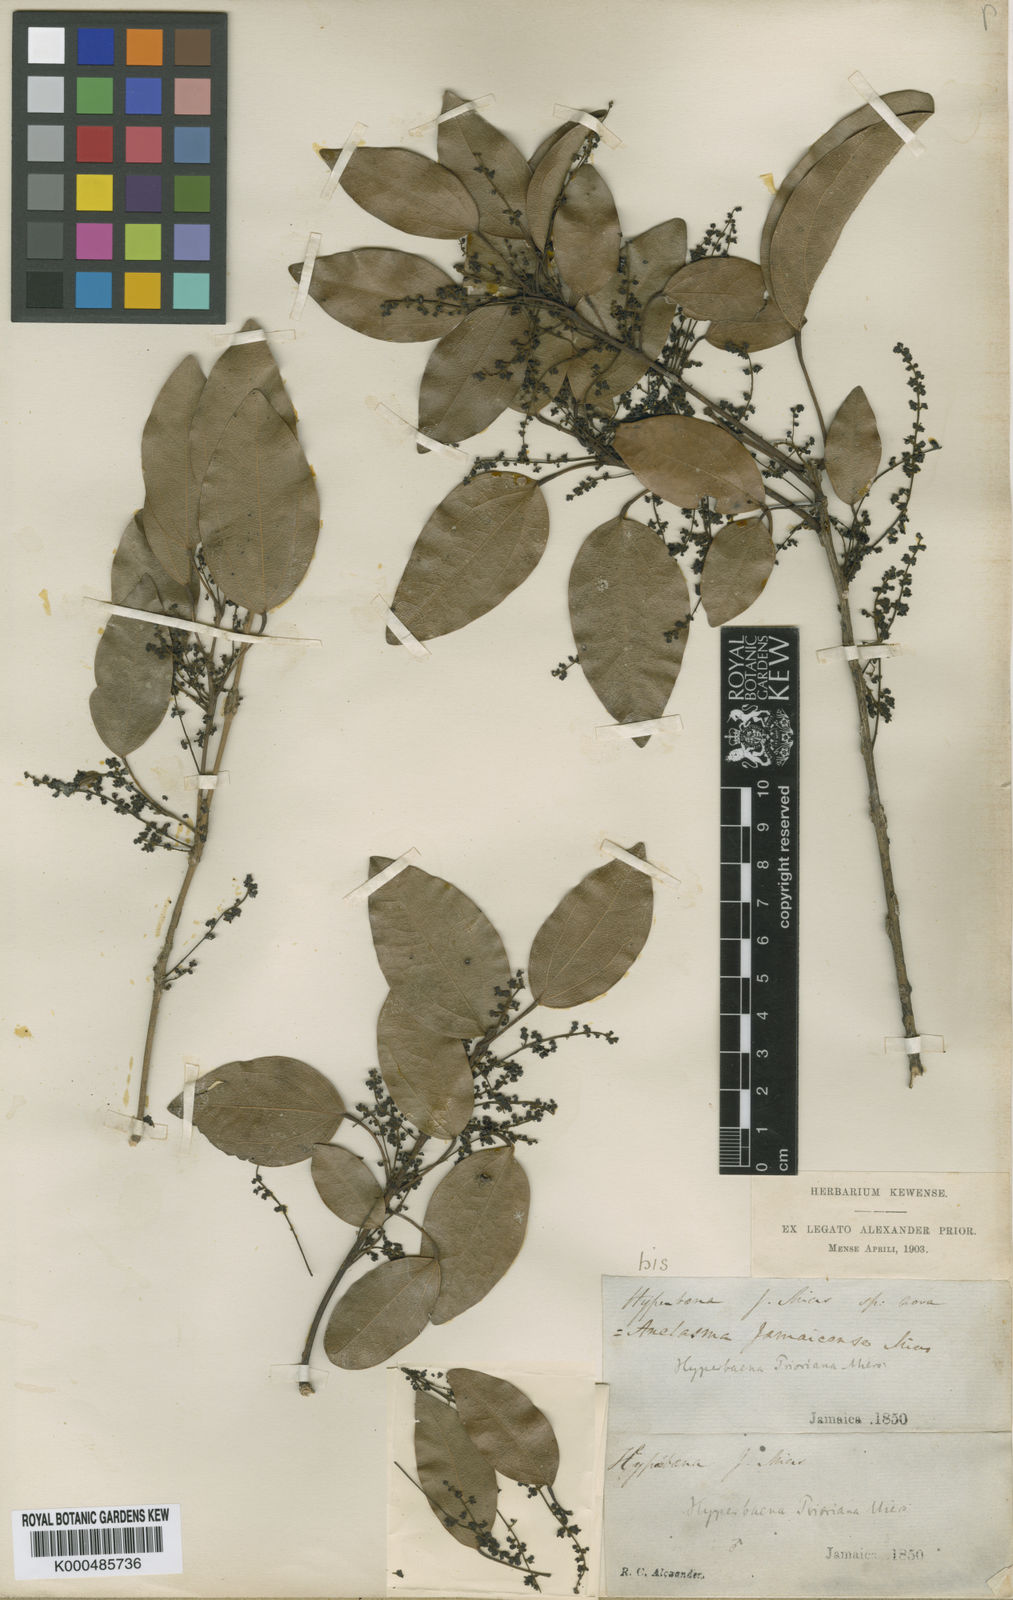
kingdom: Plantae
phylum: Tracheophyta
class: Magnoliopsida
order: Ranunculales
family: Menispermaceae
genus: Hyperbaena
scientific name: Hyperbaena prioriana
